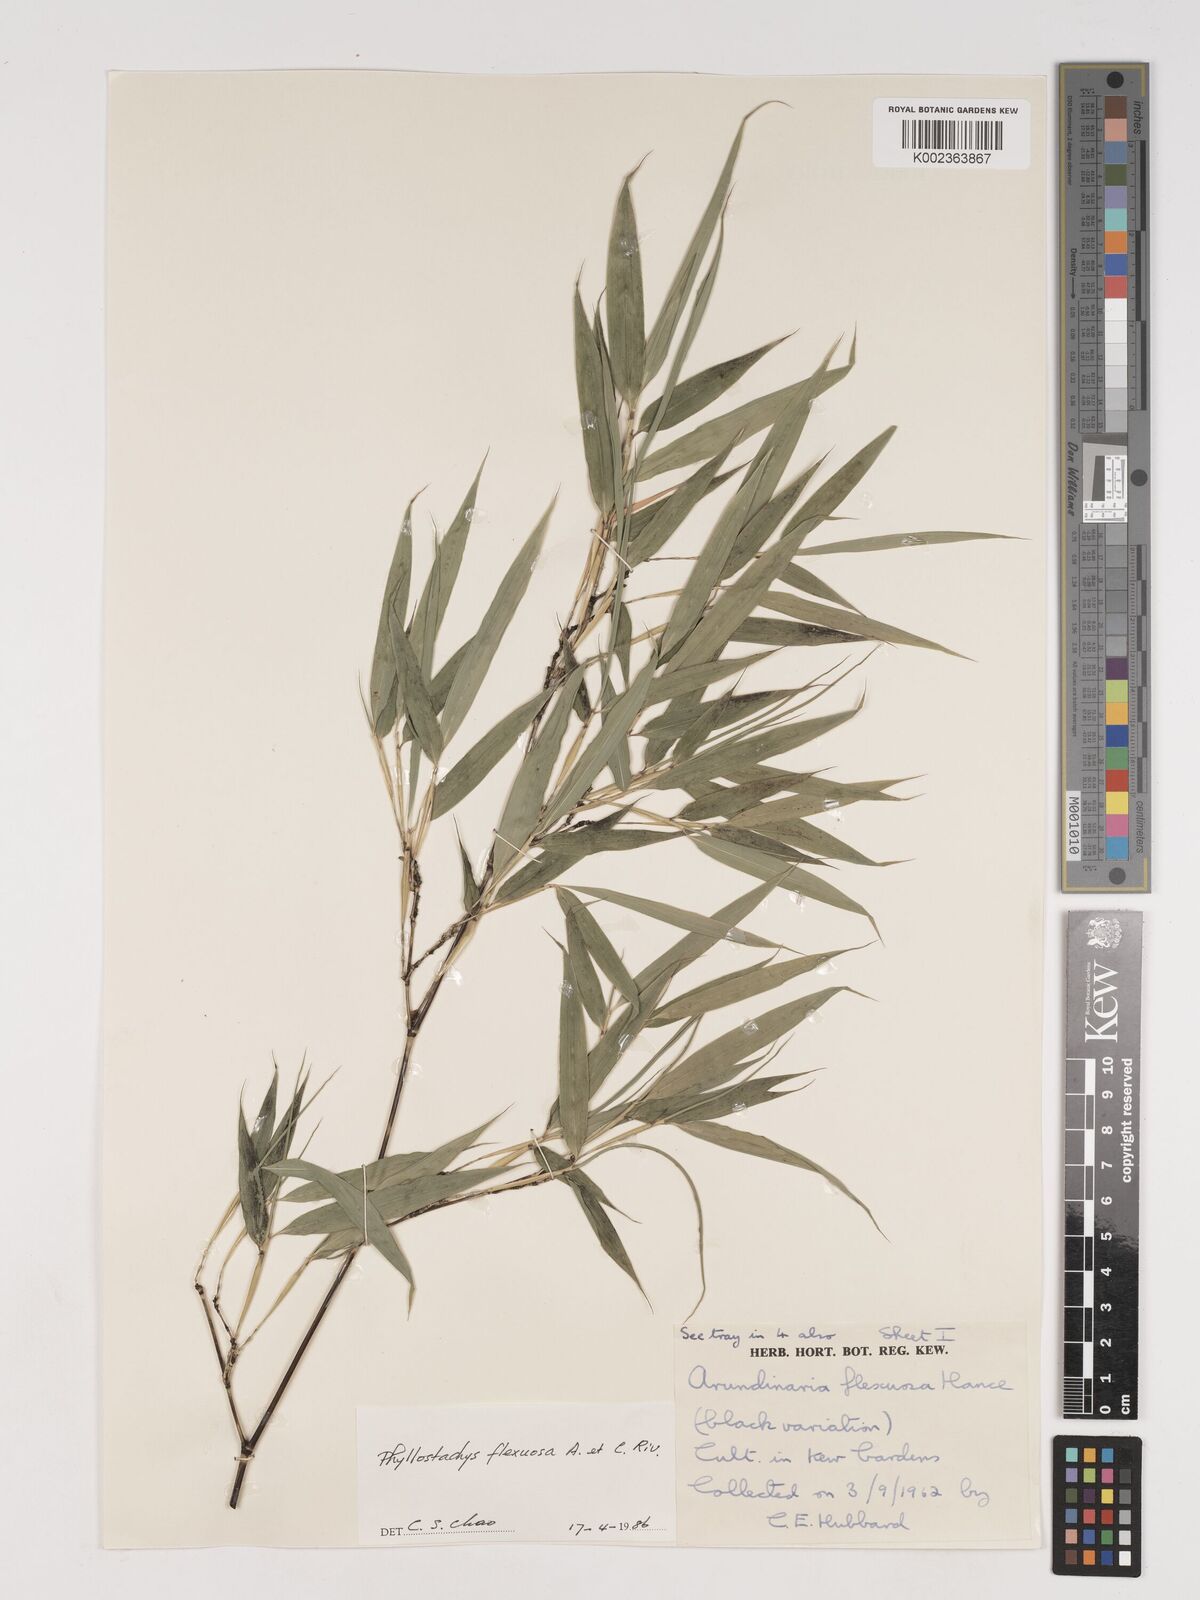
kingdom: Plantae
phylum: Tracheophyta
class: Liliopsida
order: Poales
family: Poaceae
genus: Phyllostachys
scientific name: Phyllostachys flexuosa
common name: Drooping timber bamboo
